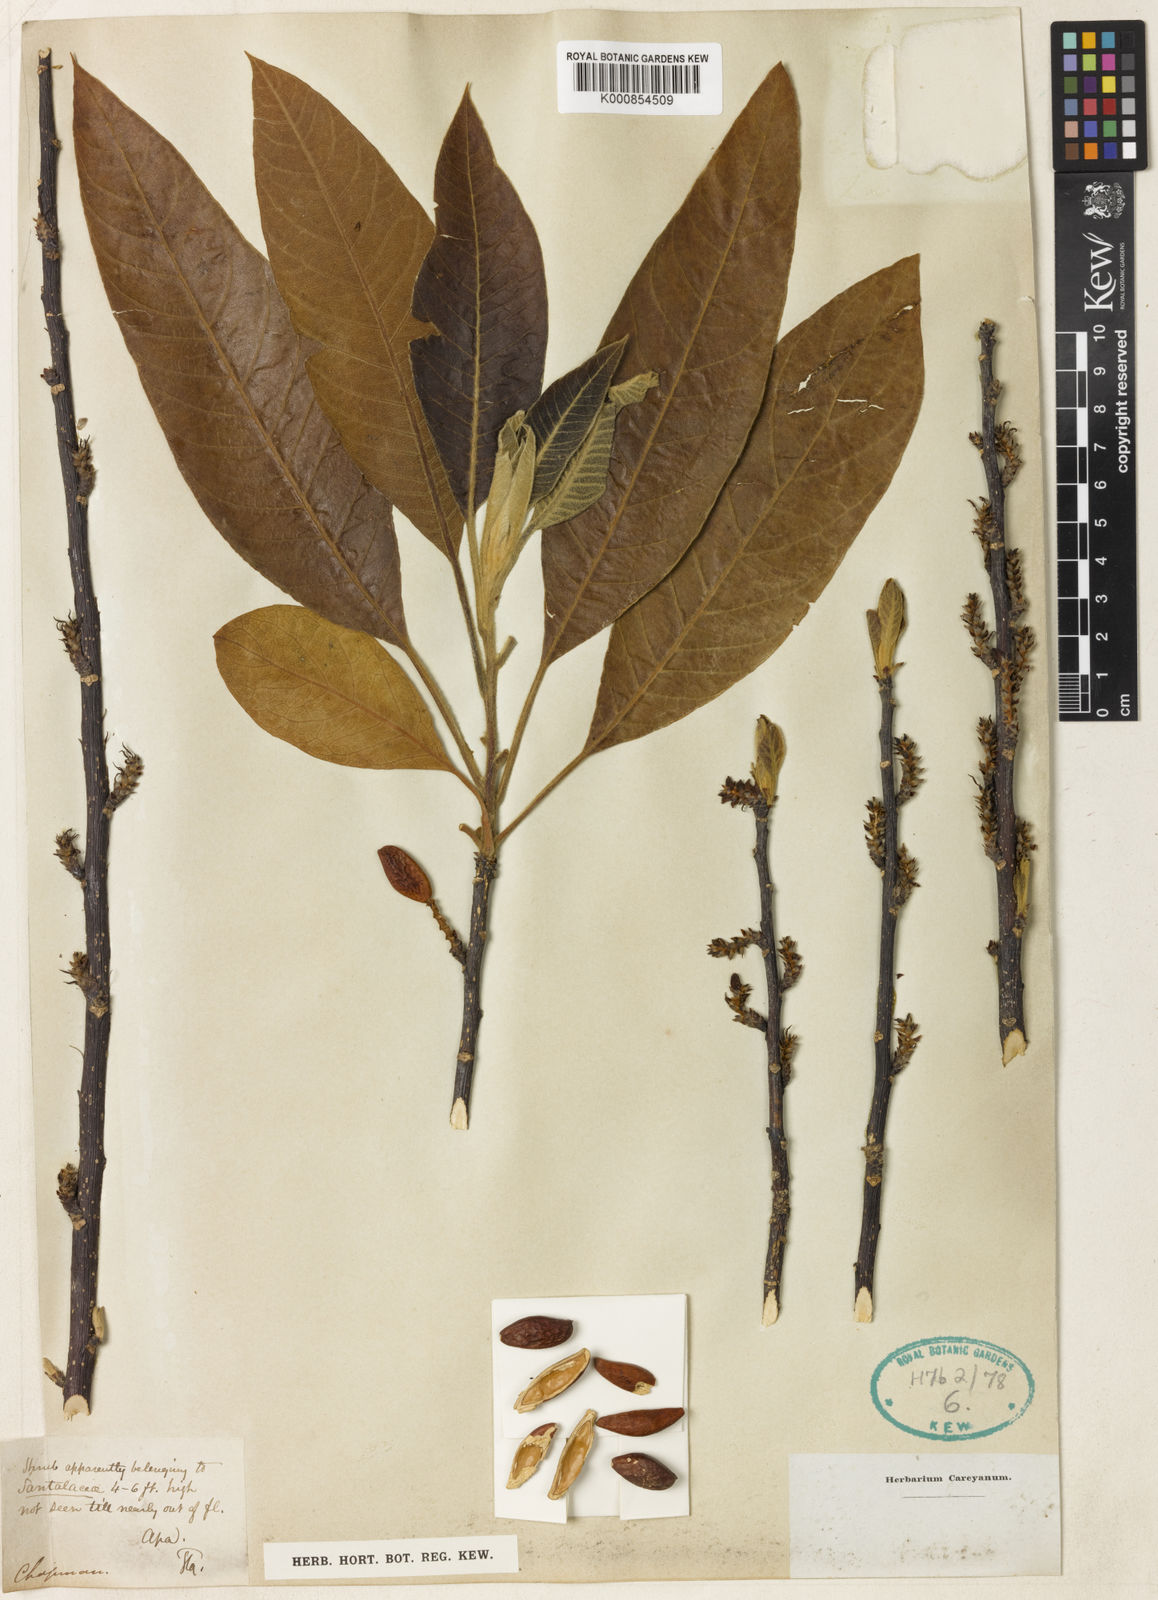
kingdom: Plantae
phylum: Tracheophyta
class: Magnoliopsida
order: Sapindales
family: Simaroubaceae
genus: Leitneria
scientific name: Leitneria floridana
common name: Corkwood
